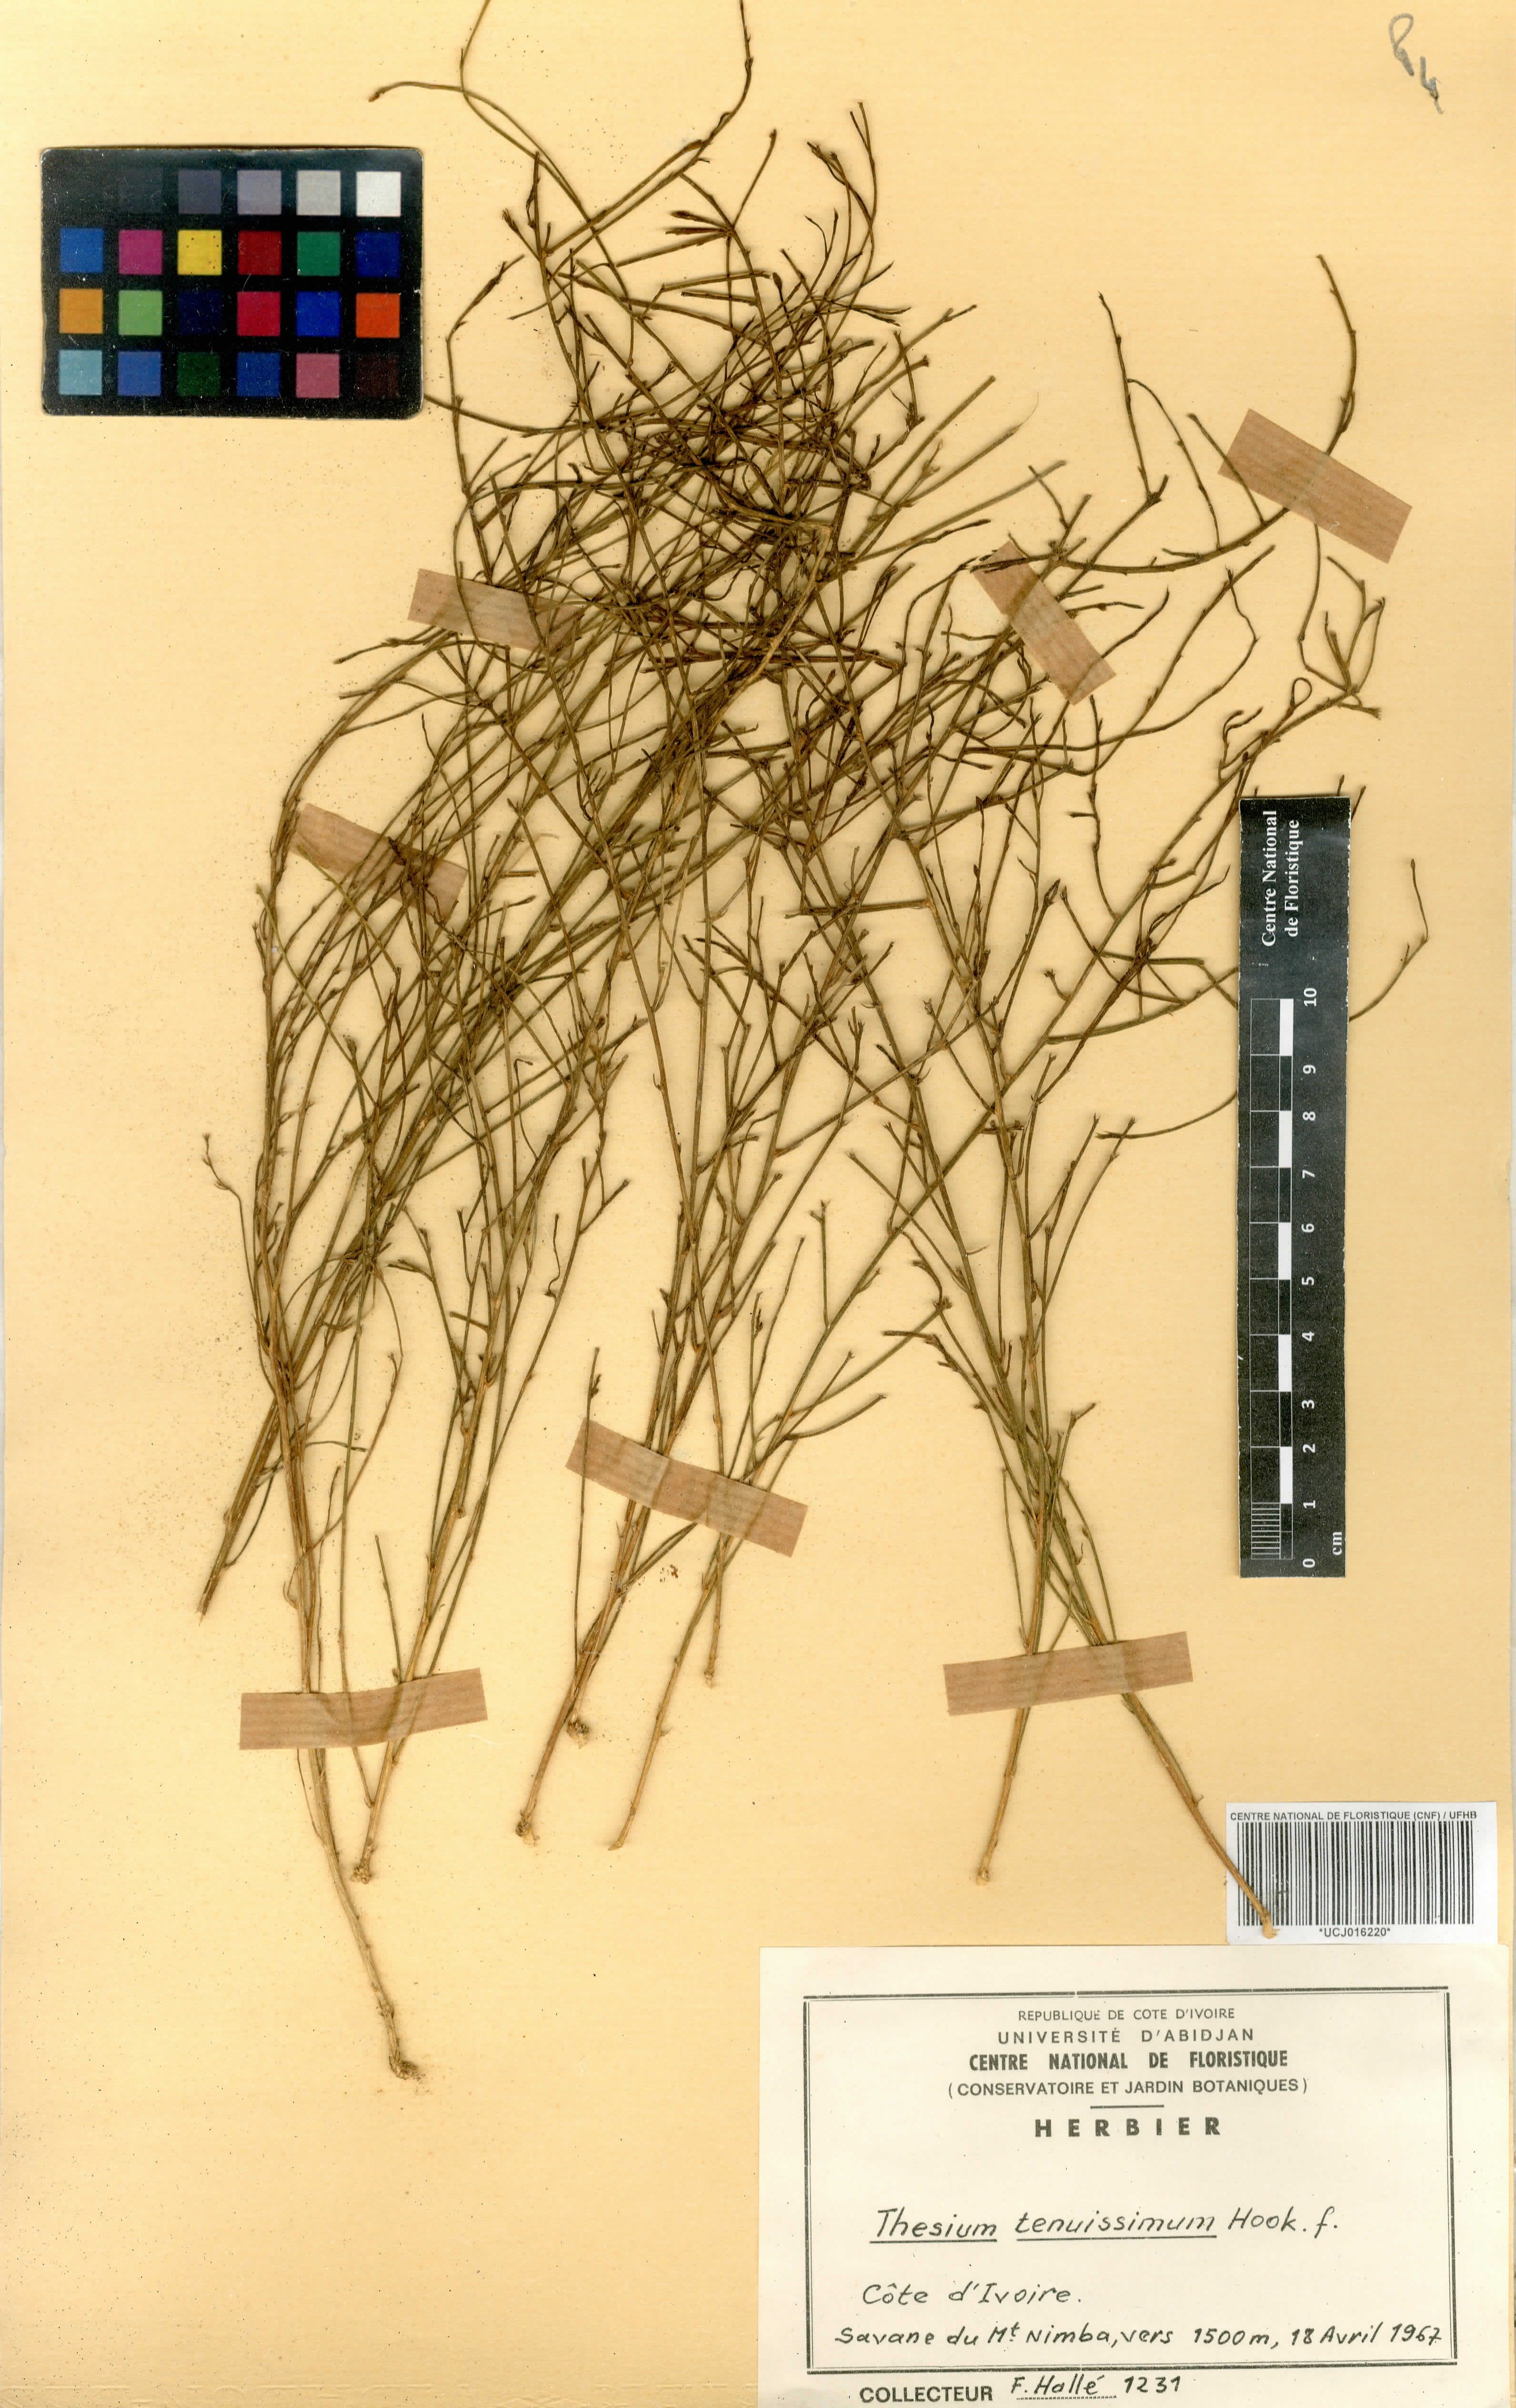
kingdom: Plantae
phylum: Tracheophyta
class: Magnoliopsida
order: Santalales
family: Thesiaceae
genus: Thesium
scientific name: Thesium tenuissimum
